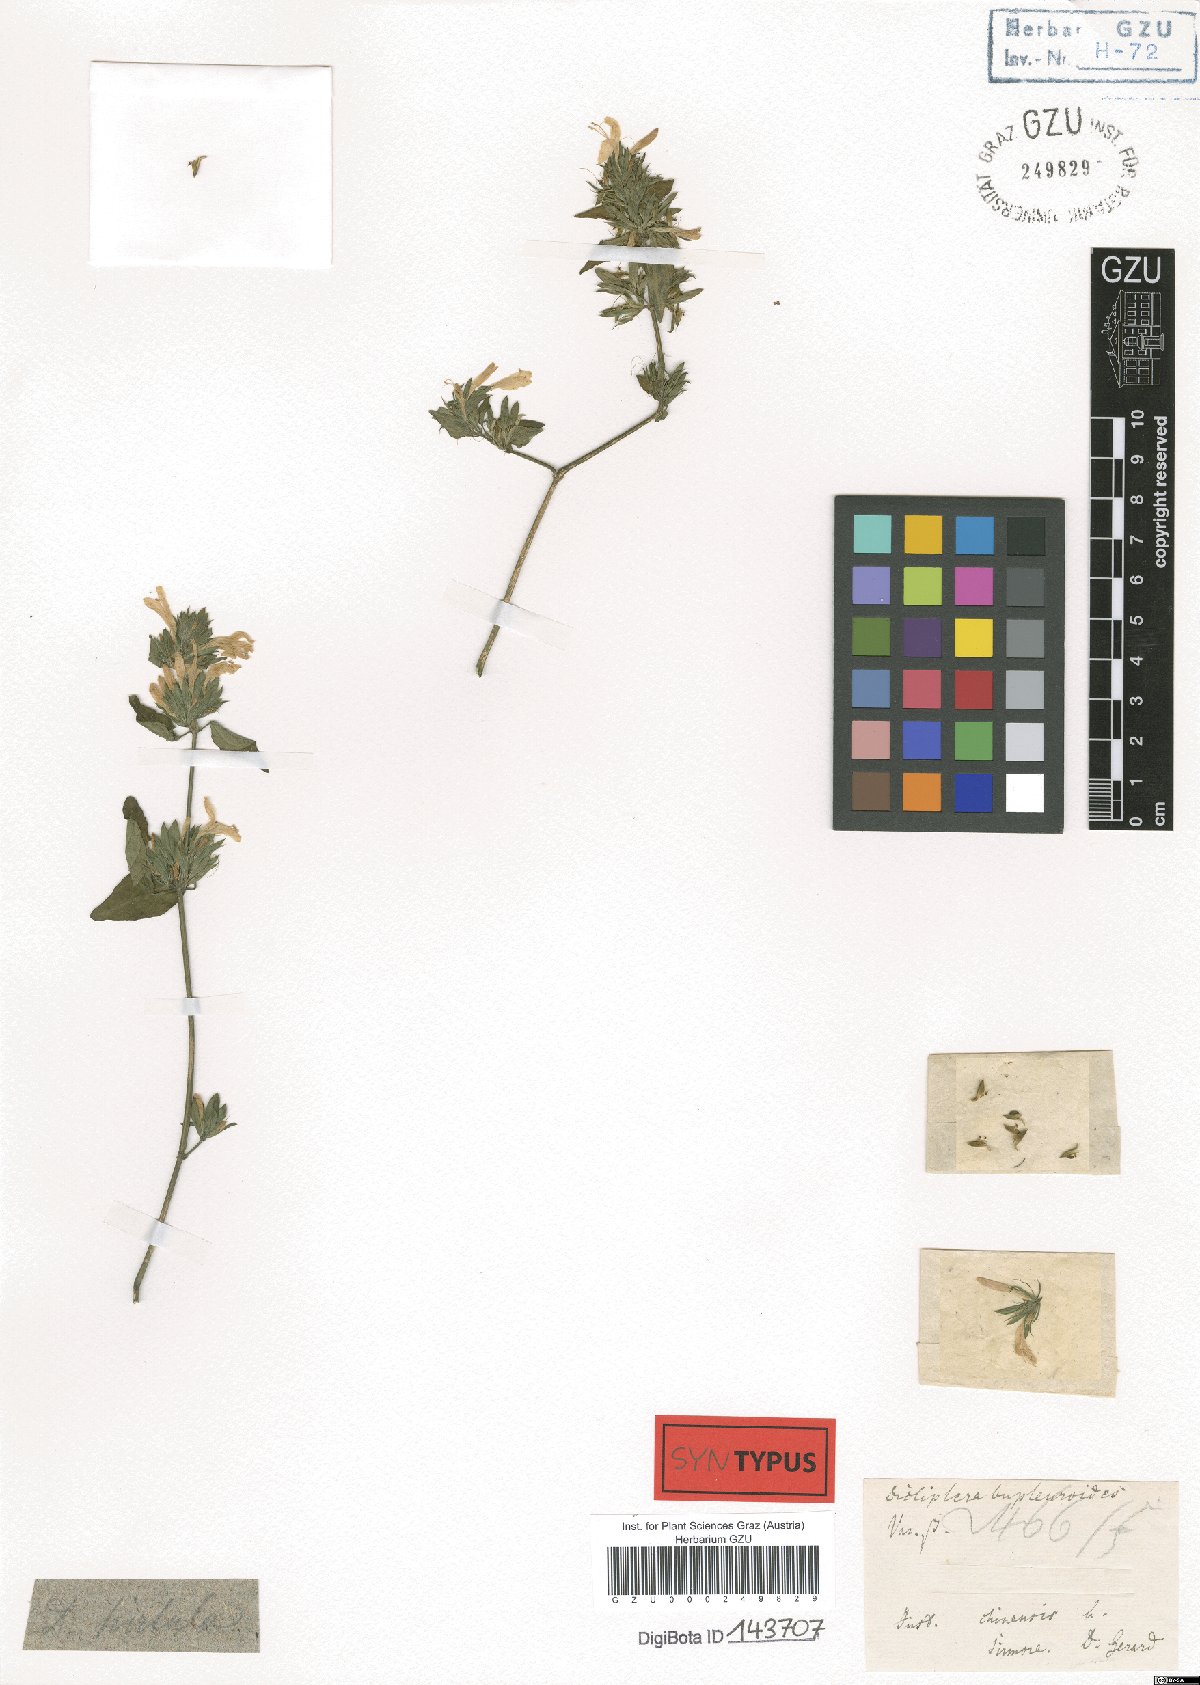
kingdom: Plantae
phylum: Tracheophyta
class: Magnoliopsida
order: Lamiales
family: Acanthaceae
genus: Dicliptera
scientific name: Dicliptera bupleuroides
